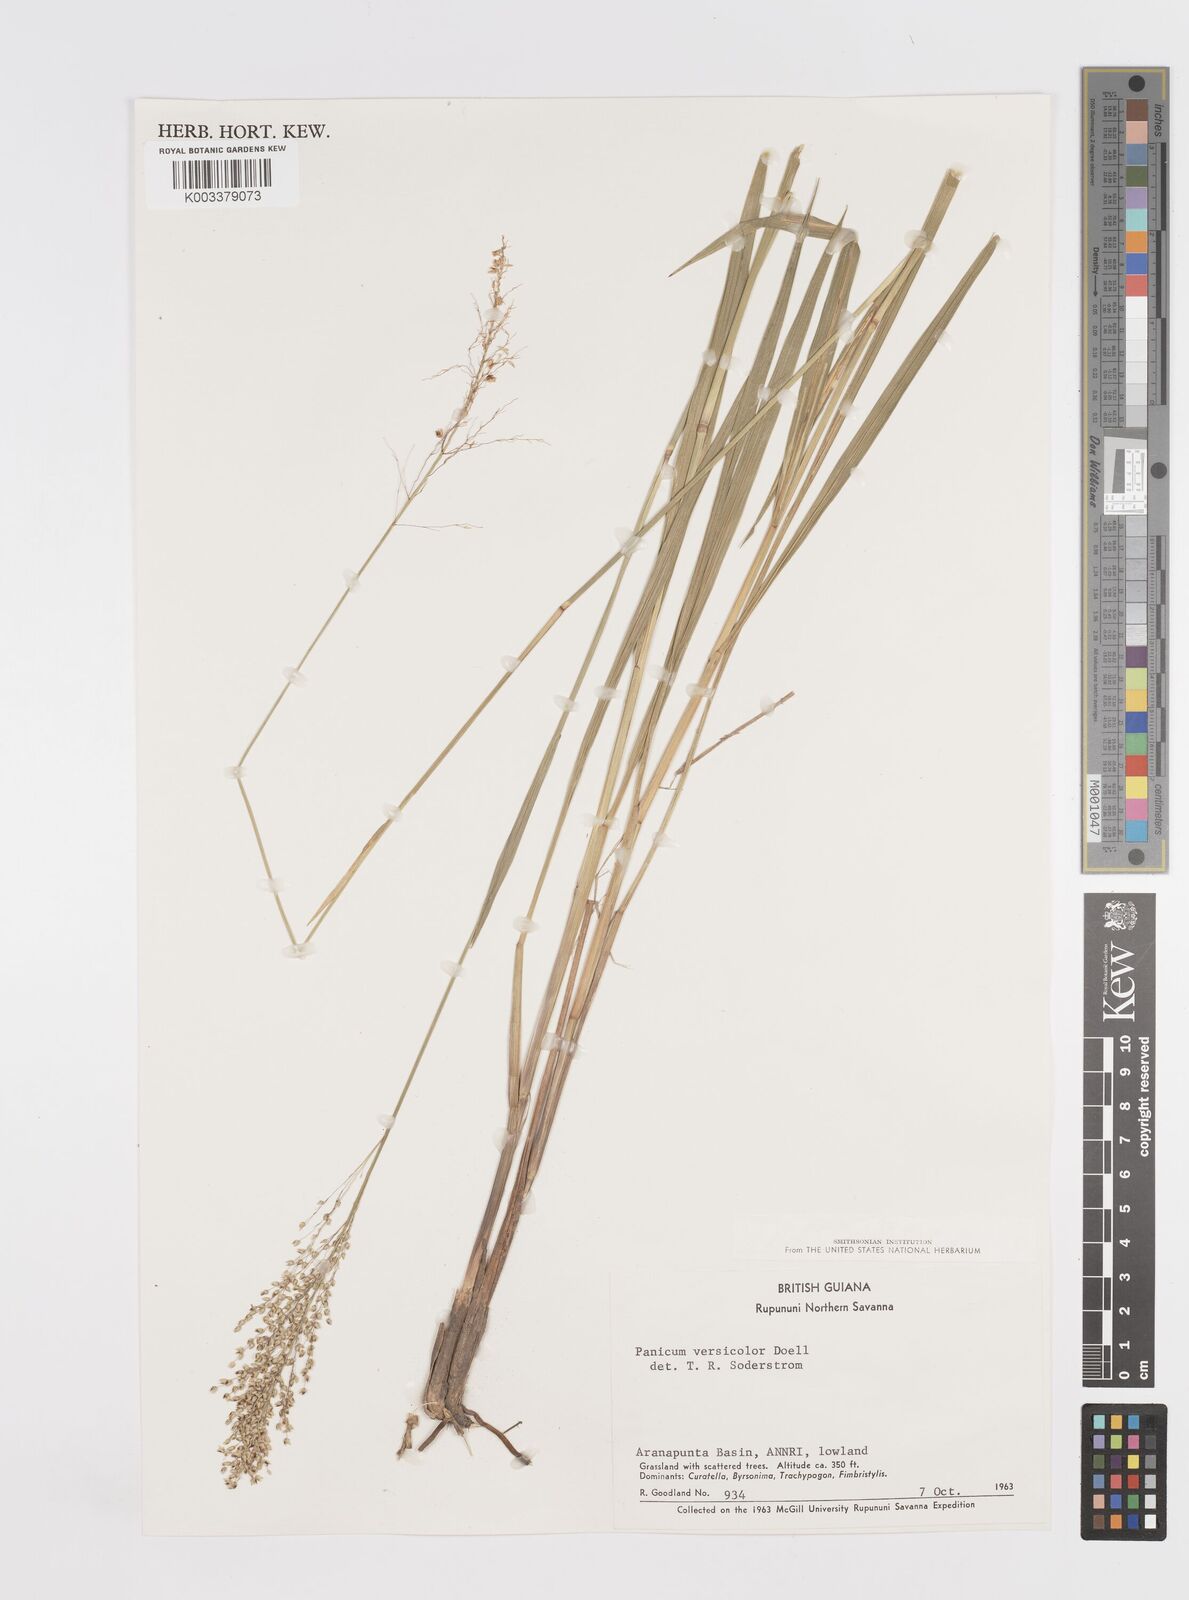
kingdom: Plantae
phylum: Tracheophyta
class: Liliopsida
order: Poales
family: Poaceae
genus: Otachyrium
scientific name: Otachyrium versicolor
